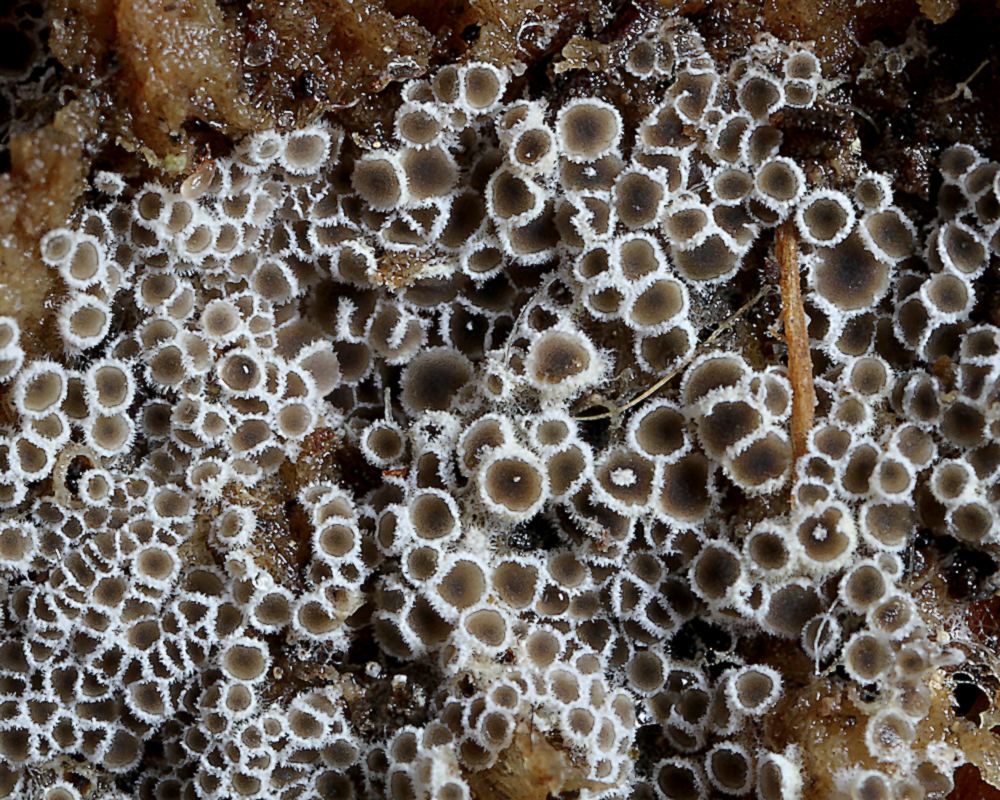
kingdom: Fungi
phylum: Ascomycota
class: Leotiomycetes
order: Helotiales
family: Arachnopezizaceae
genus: Eriopezia
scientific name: Eriopezia caesia
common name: ege-spindskive
